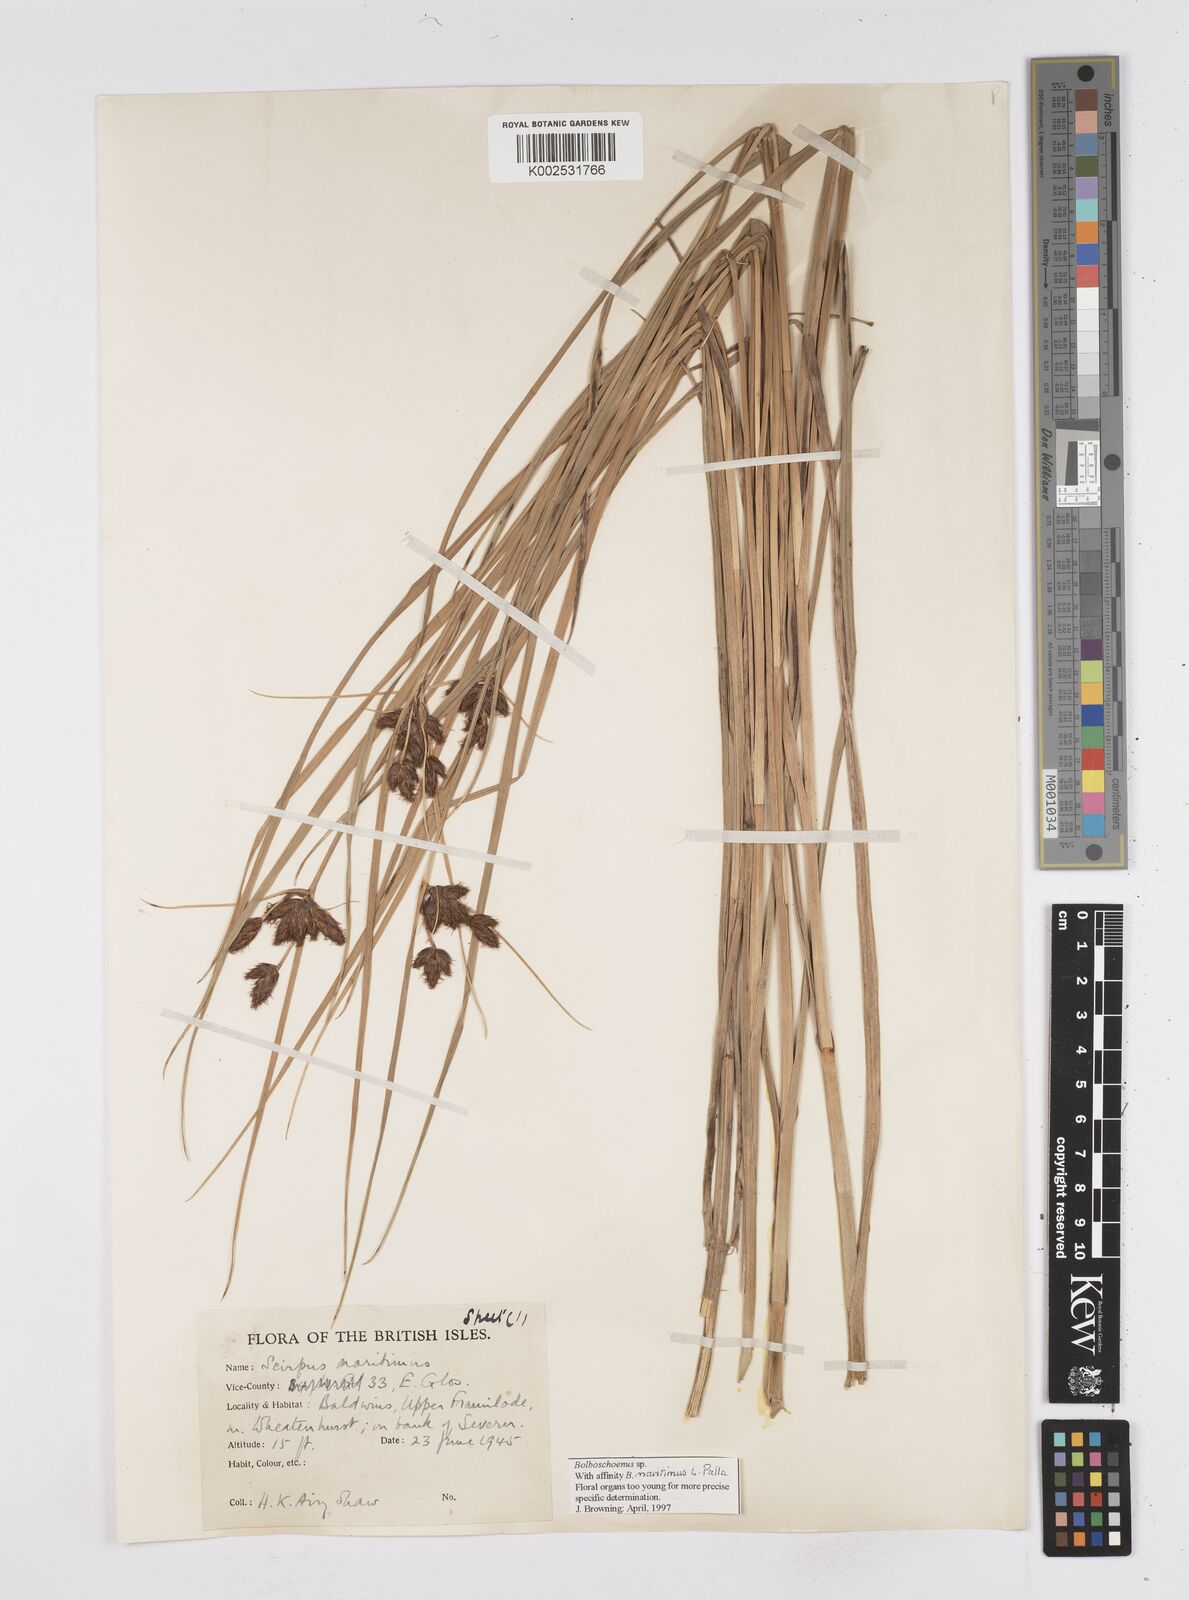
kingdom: Plantae
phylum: Tracheophyta
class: Liliopsida
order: Poales
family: Cyperaceae
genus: Bolboschoenus
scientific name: Bolboschoenus maritimus
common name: Sea club-rush
